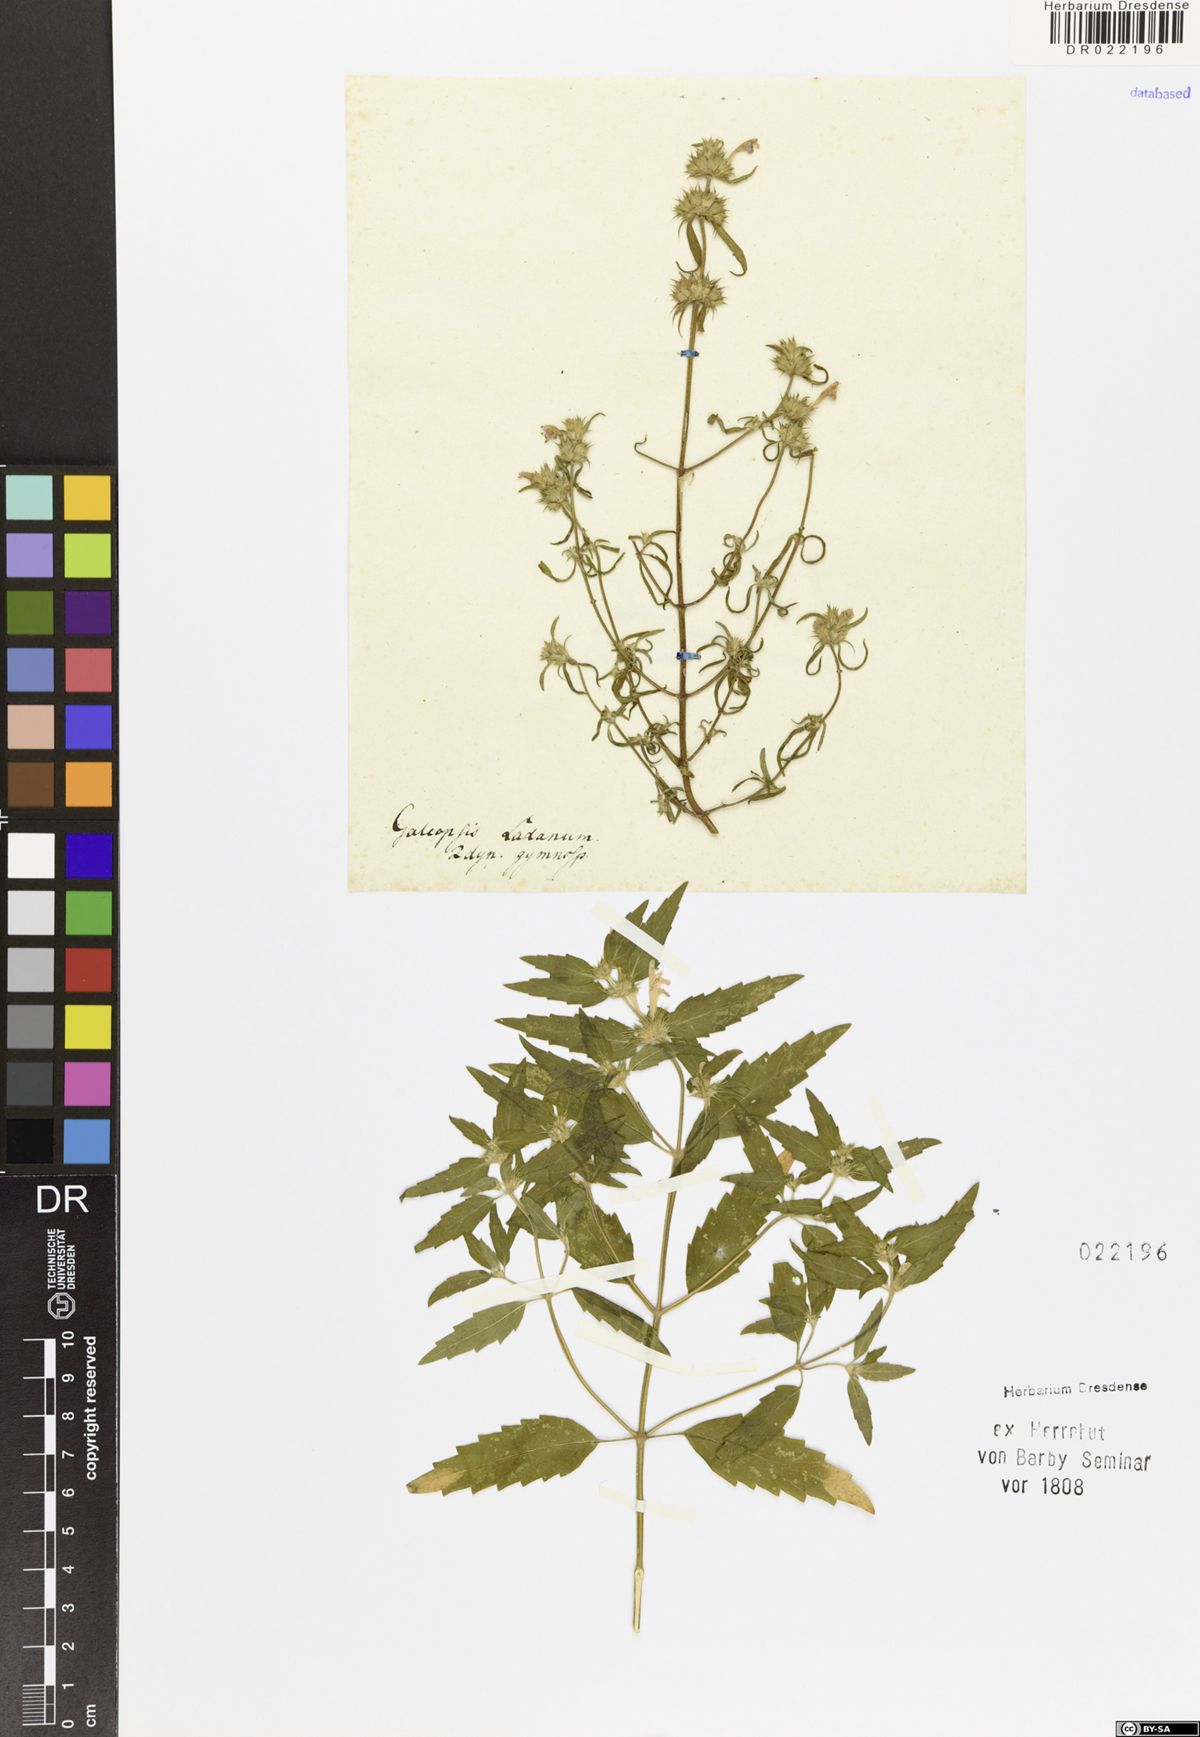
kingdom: Plantae
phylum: Tracheophyta
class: Magnoliopsida
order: Lamiales
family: Lamiaceae
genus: Galeopsis
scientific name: Galeopsis ladanum
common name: Broad-leaved hemp-nettle
